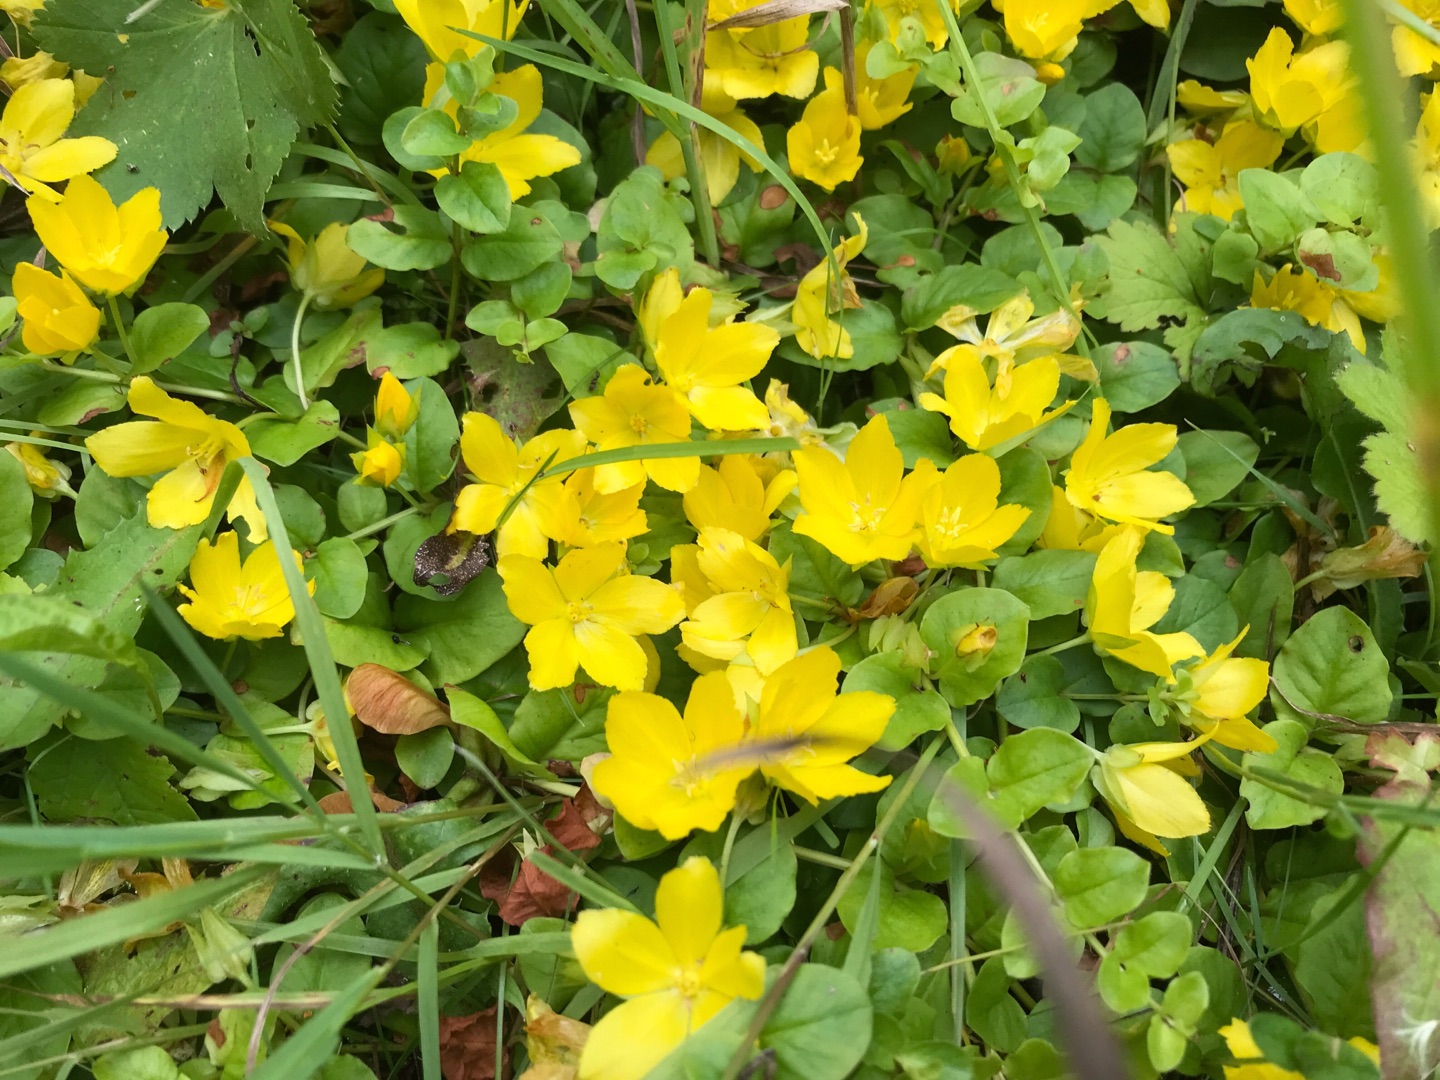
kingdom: Plantae
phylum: Tracheophyta
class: Magnoliopsida
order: Ericales
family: Primulaceae
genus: Lysimachia
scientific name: Lysimachia nummularia
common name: Pengebladet fredløs
